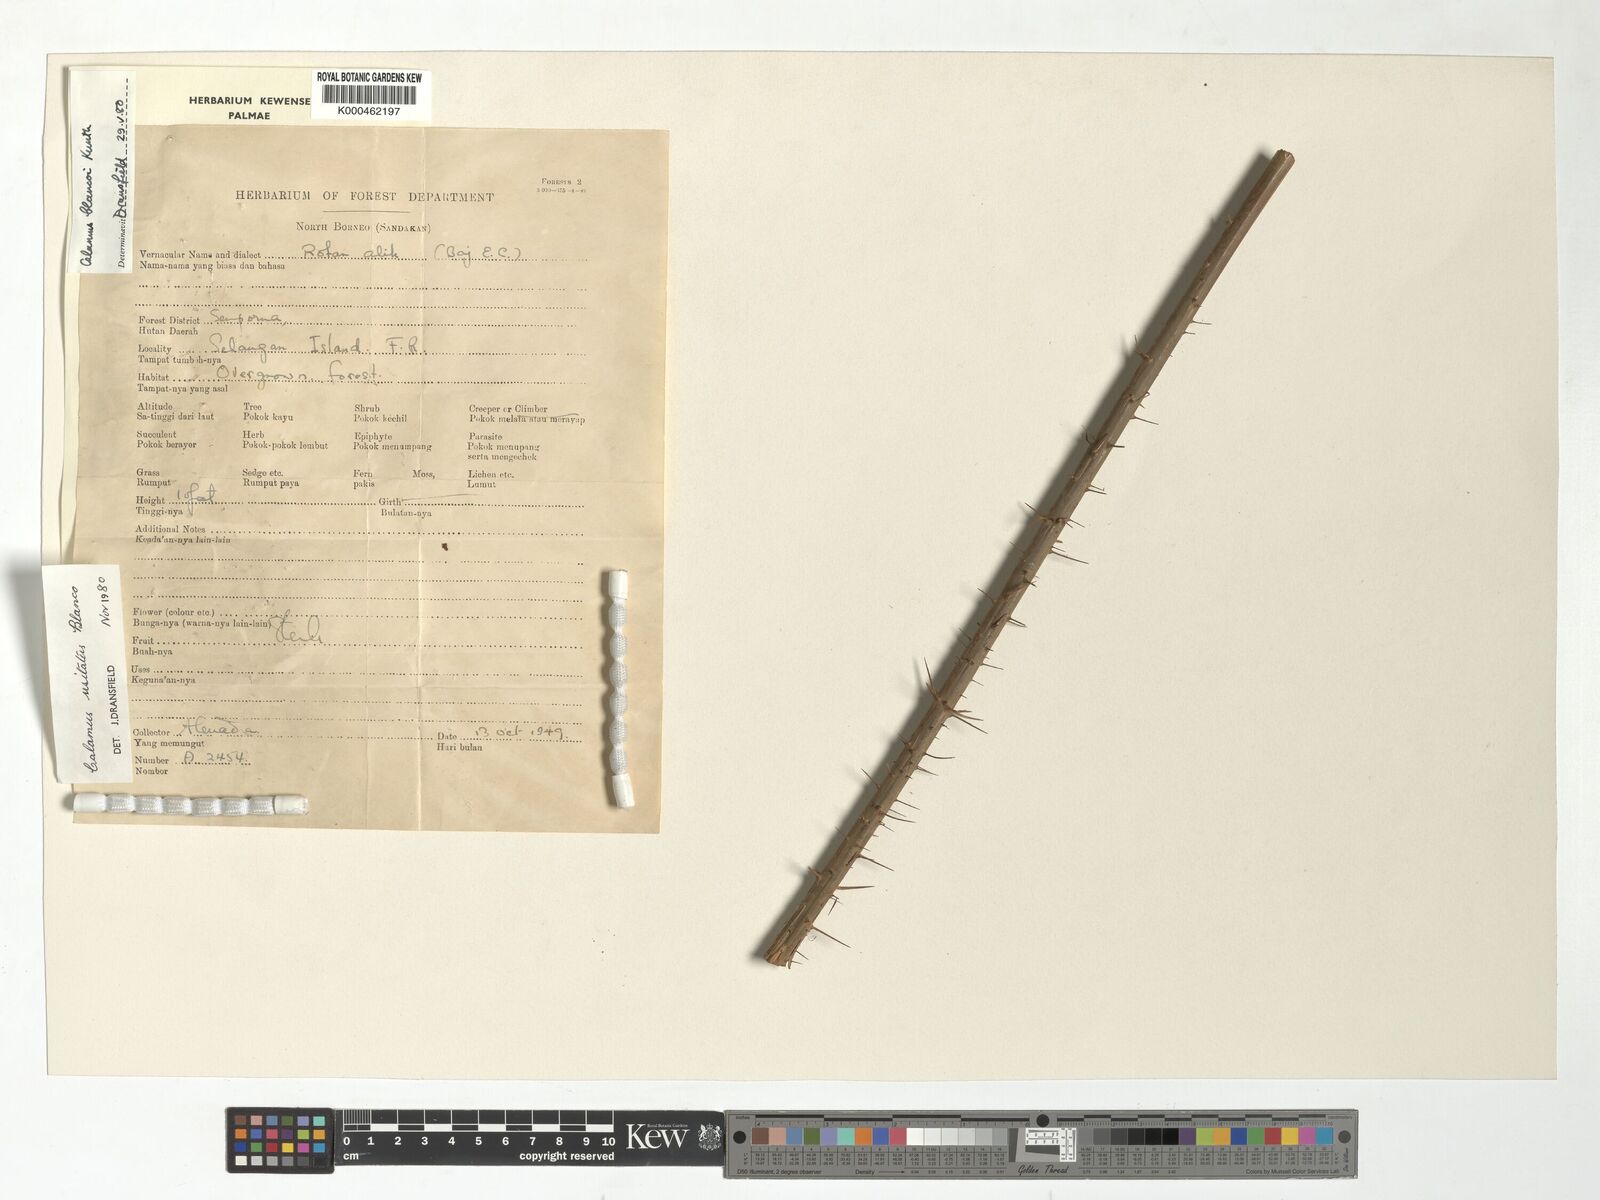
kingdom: Plantae
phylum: Tracheophyta
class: Liliopsida
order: Arecales
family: Arecaceae
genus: Calamus
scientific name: Calamus usitatus
